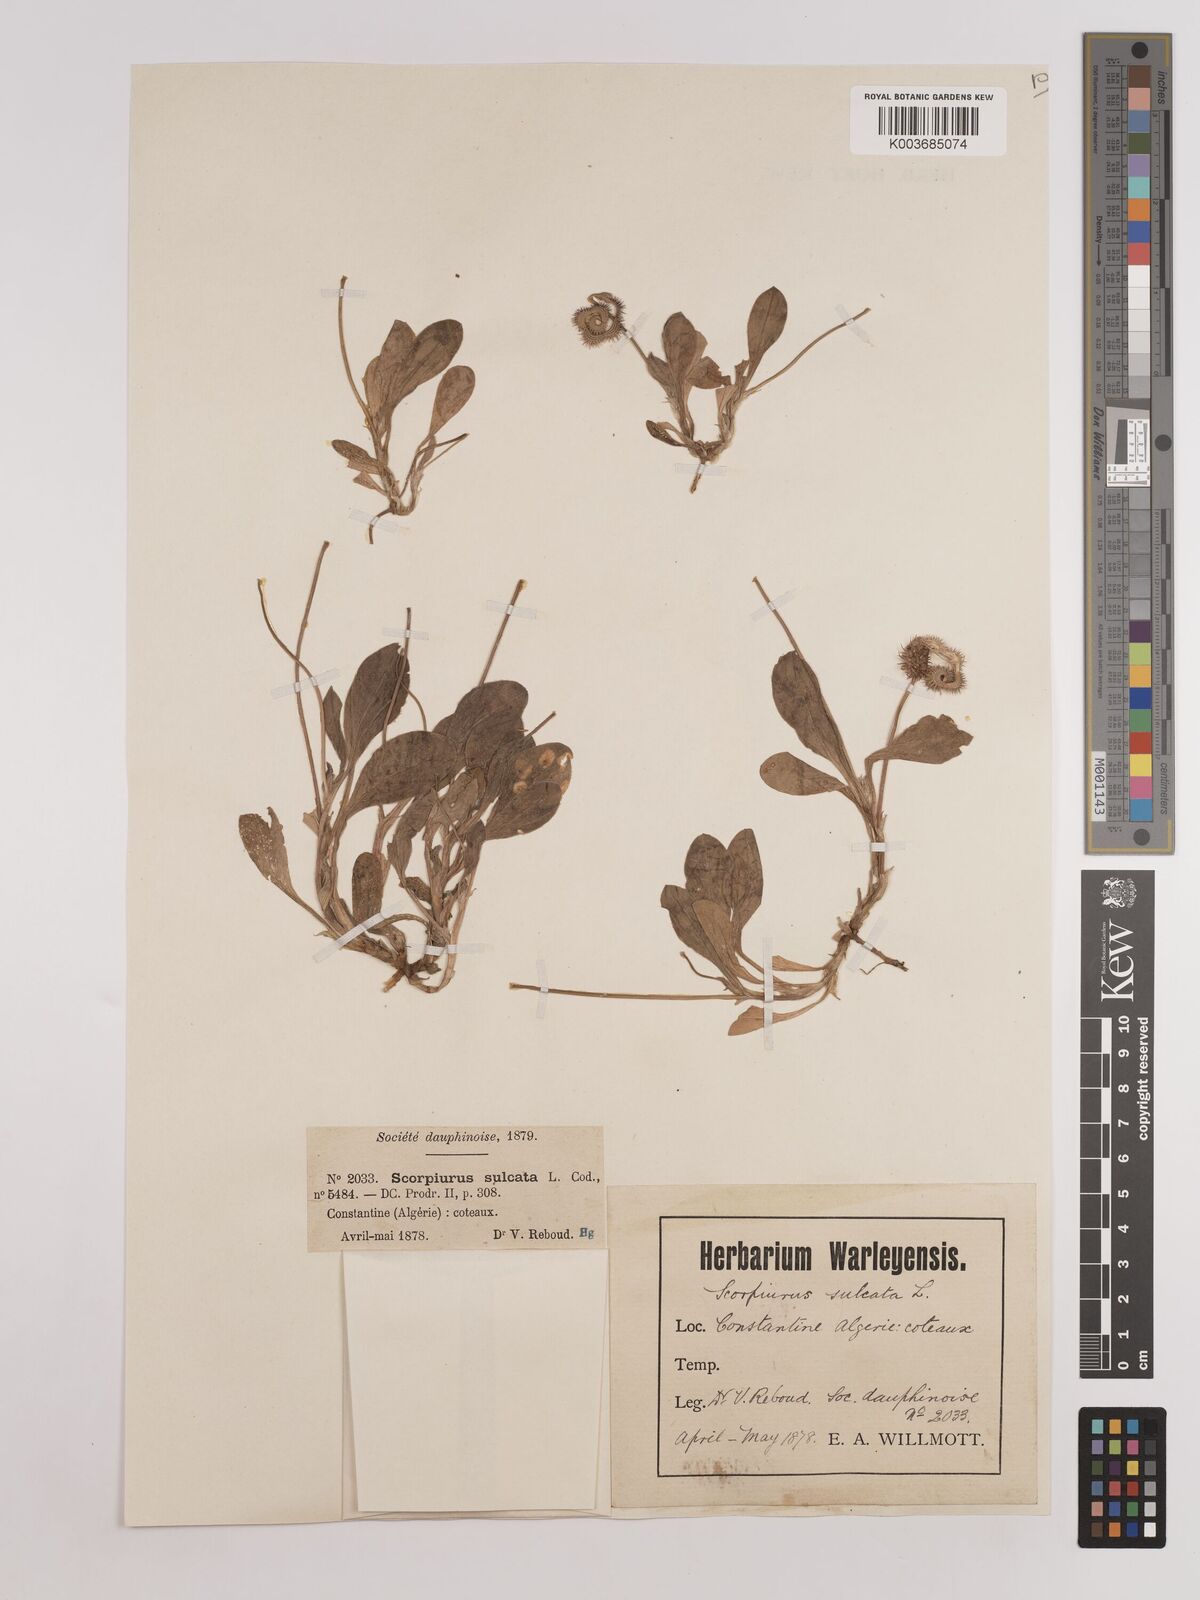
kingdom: Plantae
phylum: Tracheophyta
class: Magnoliopsida
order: Fabales
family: Fabaceae
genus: Scorpiurus
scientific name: Scorpiurus muricatus
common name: Caterpillar-plant
